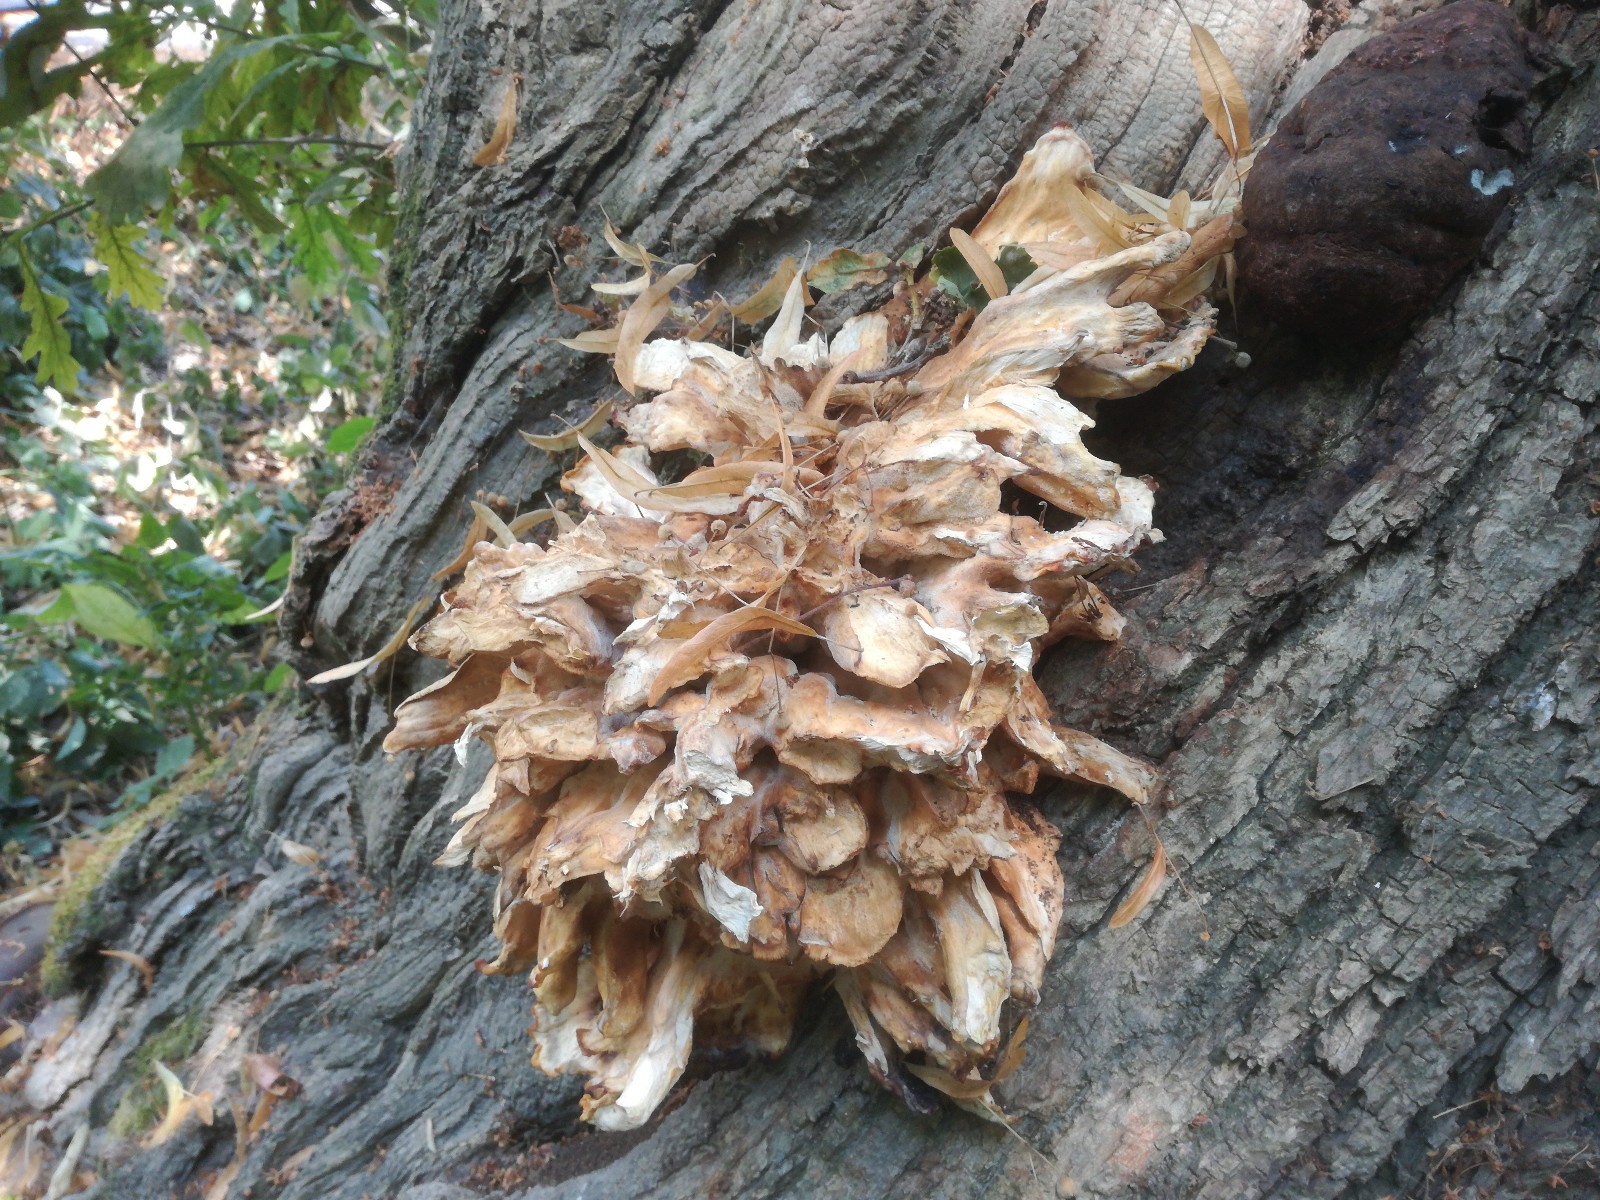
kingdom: Fungi
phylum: Basidiomycota
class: Agaricomycetes
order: Polyporales
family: Laetiporaceae
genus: Laetiporus
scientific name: Laetiporus sulphureus
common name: svovlporesvamp
